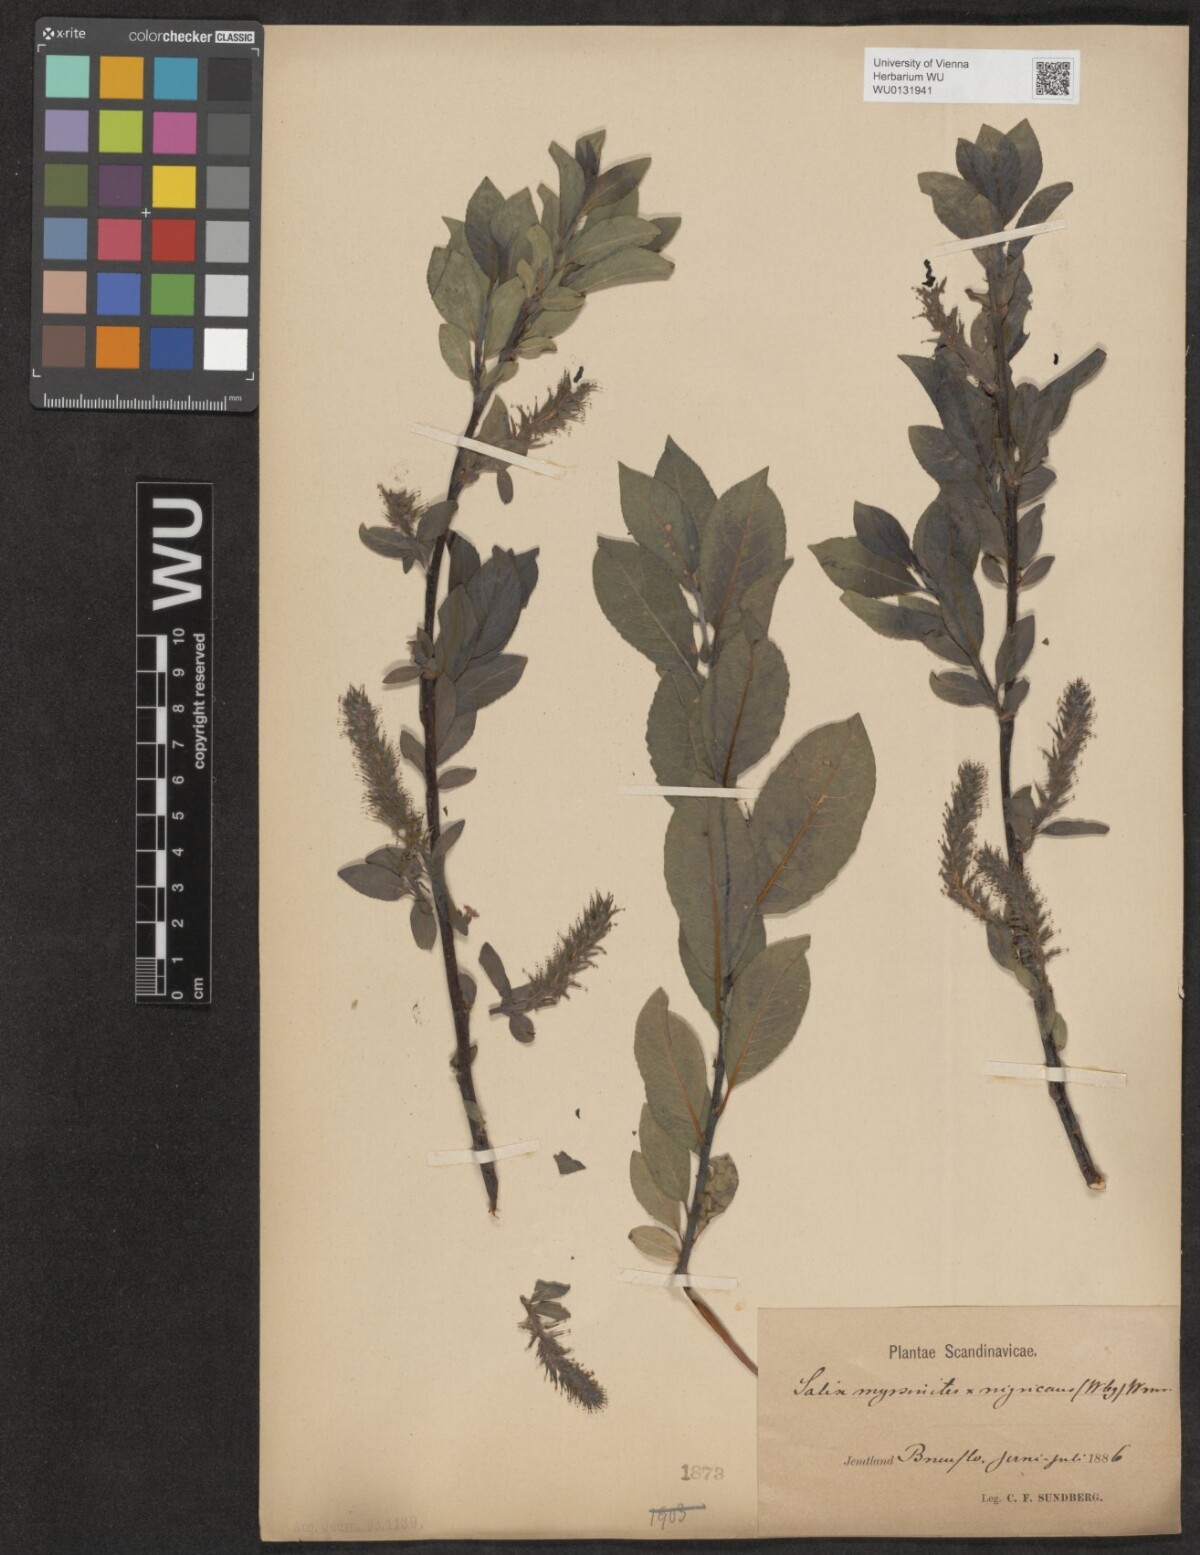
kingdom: Plantae
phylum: Tracheophyta
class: Magnoliopsida
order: Malpighiales
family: Salicaceae
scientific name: Salicaceae
